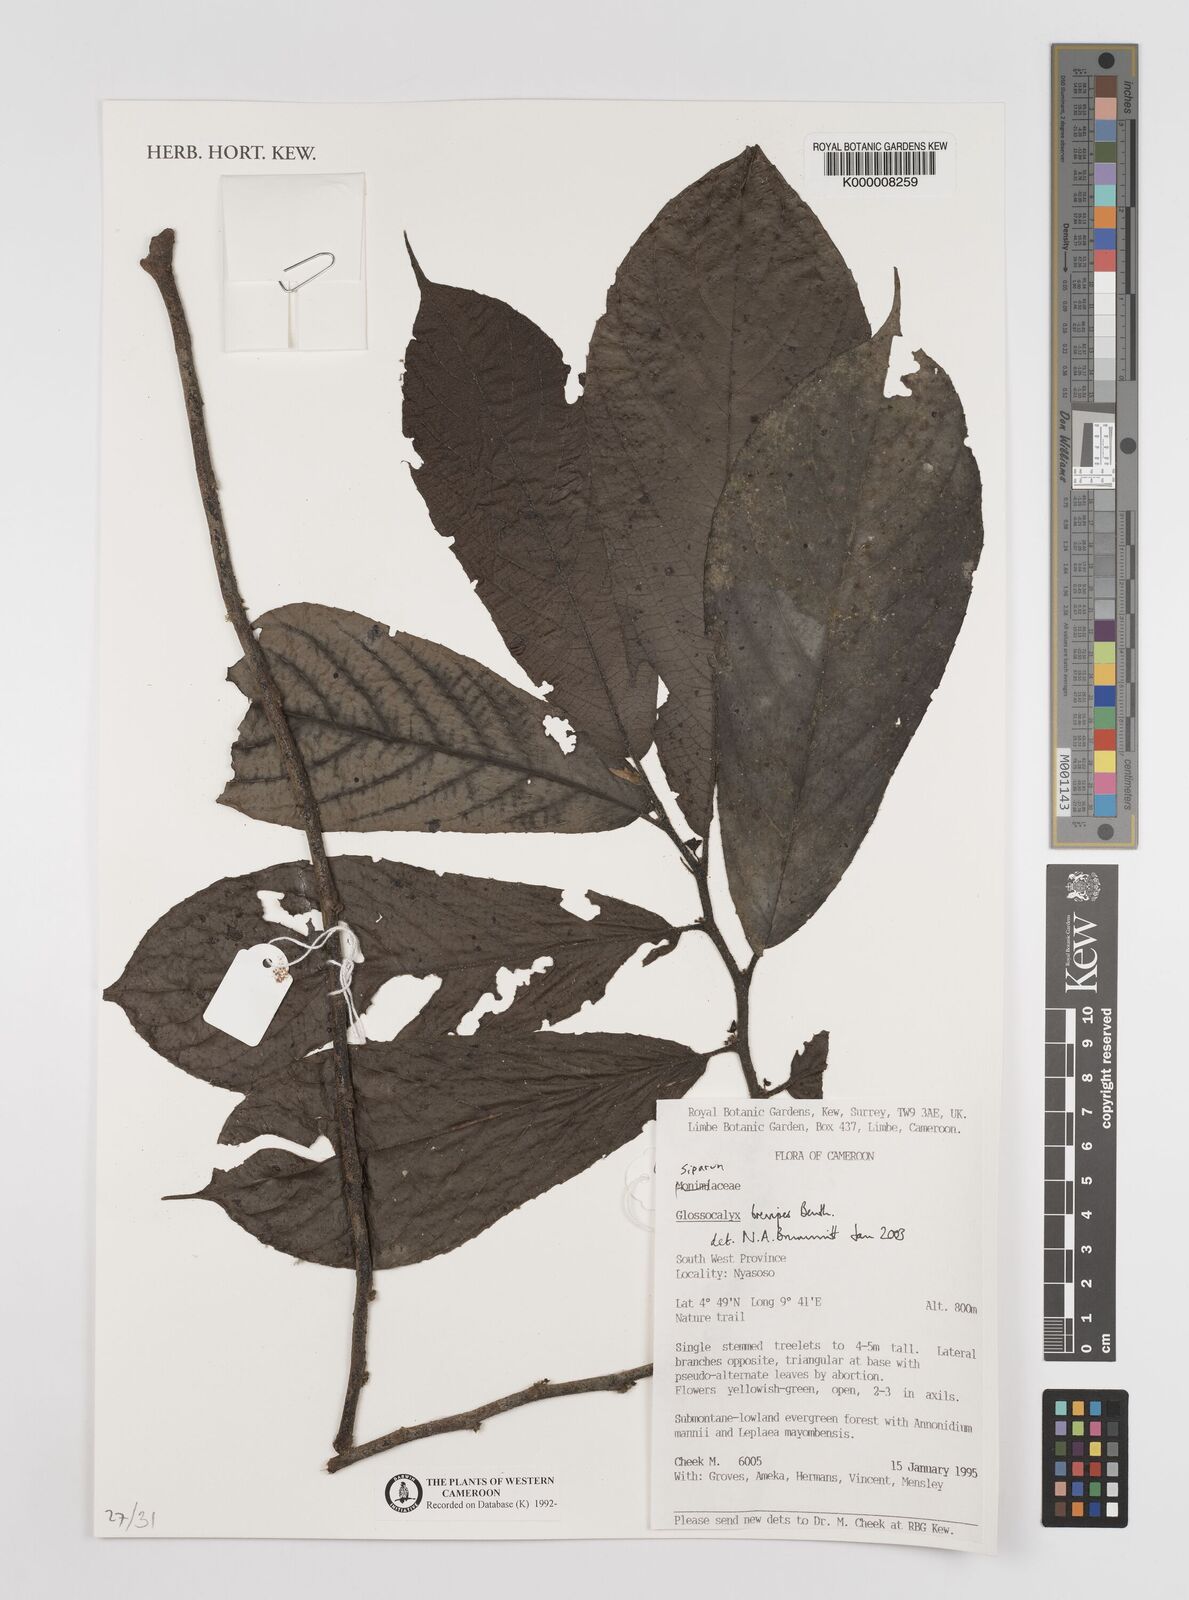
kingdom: Plantae
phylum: Tracheophyta
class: Magnoliopsida
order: Laurales
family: Siparunaceae
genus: Glossocalyx
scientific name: Glossocalyx brevipes
